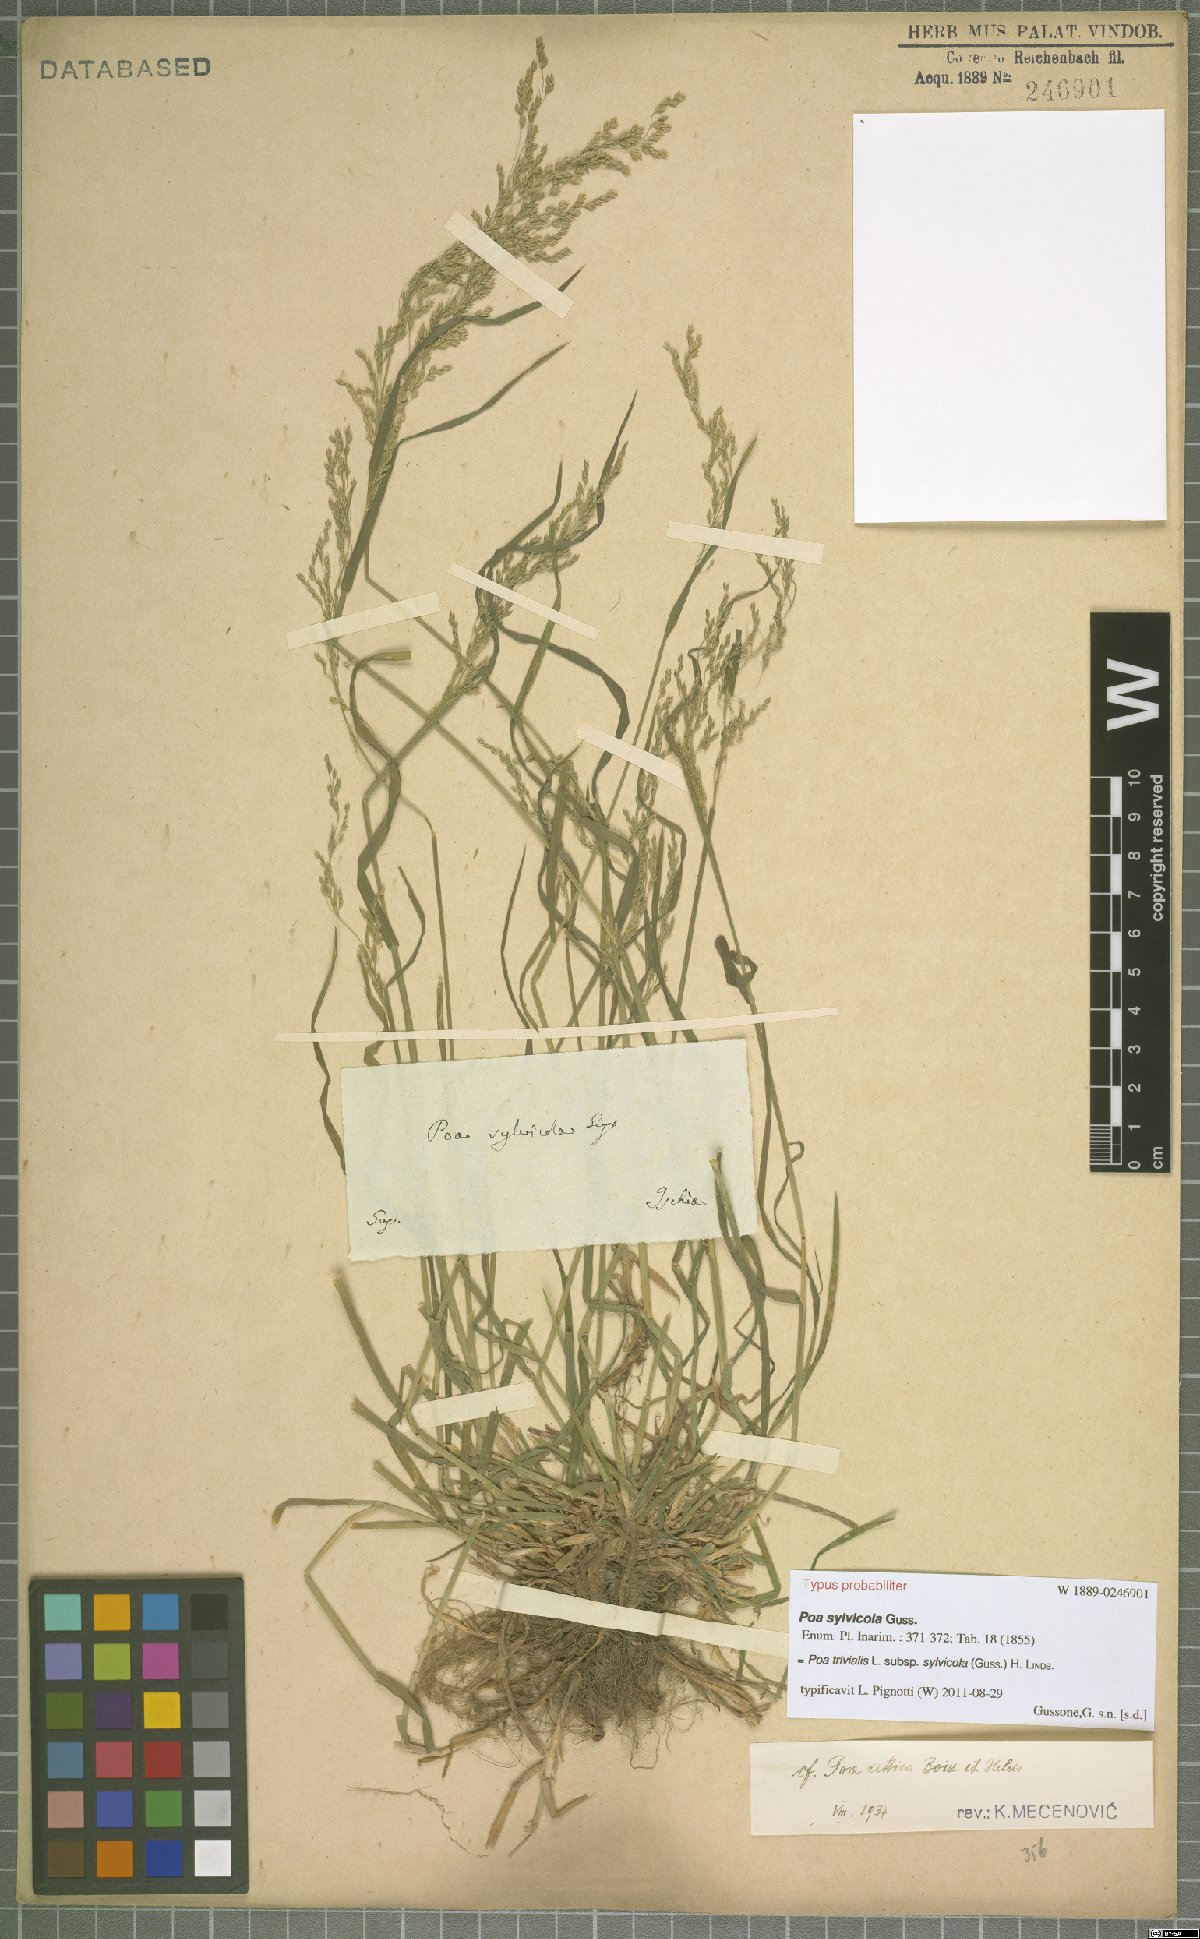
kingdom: Plantae
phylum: Tracheophyta
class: Liliopsida
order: Poales
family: Poaceae
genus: Poa
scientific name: Poa trivialis
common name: Rough bluegrass
